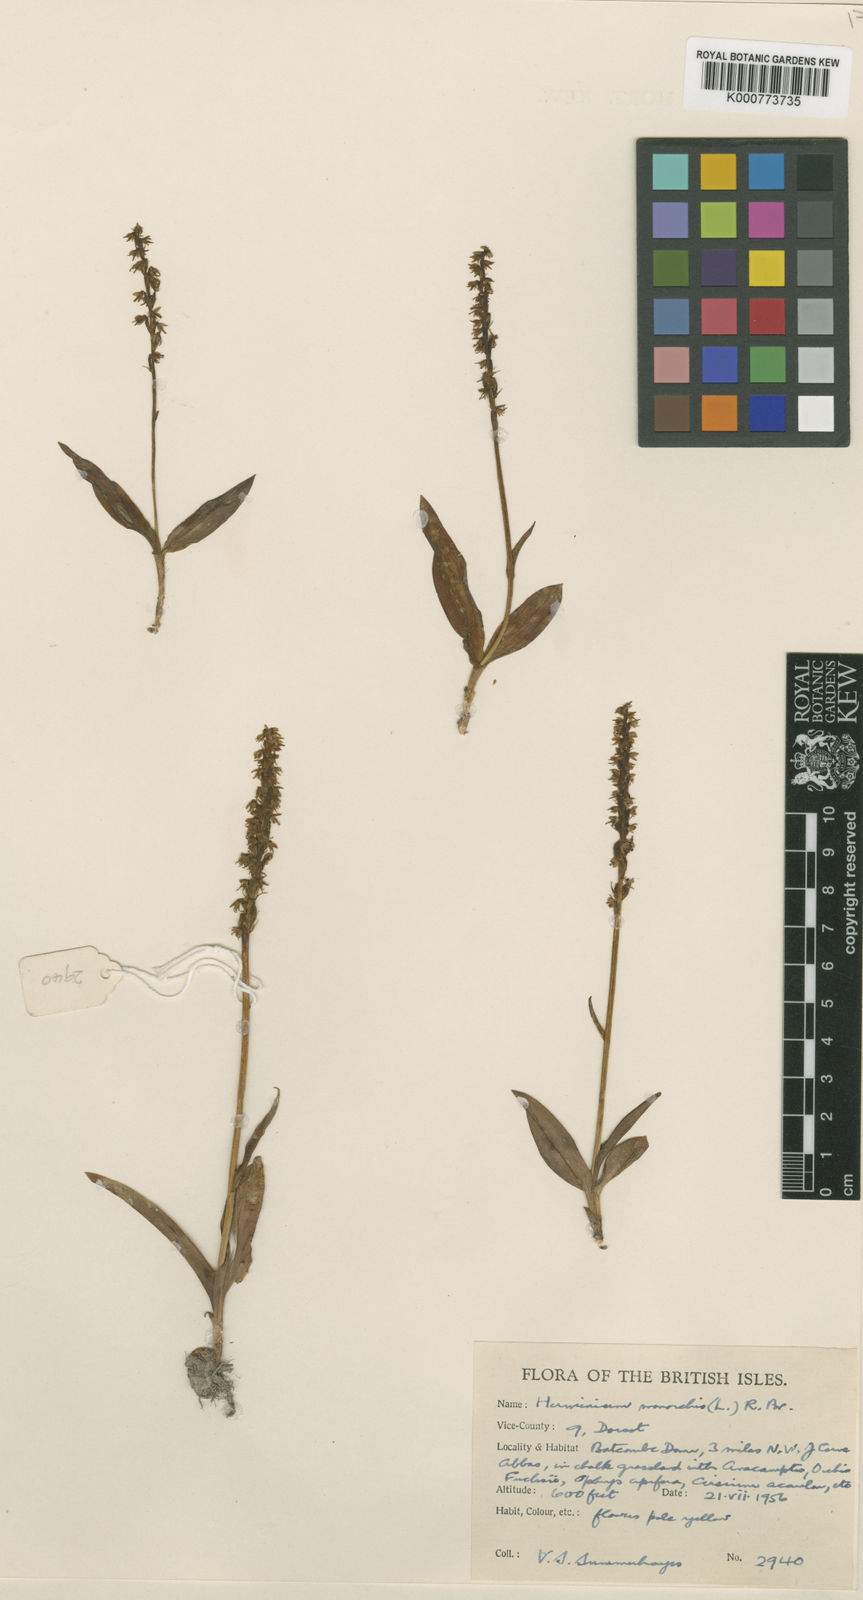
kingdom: Plantae
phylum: Tracheophyta
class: Liliopsida
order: Asparagales
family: Orchidaceae
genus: Herminium
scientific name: Herminium monorchis
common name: Musk orchid
